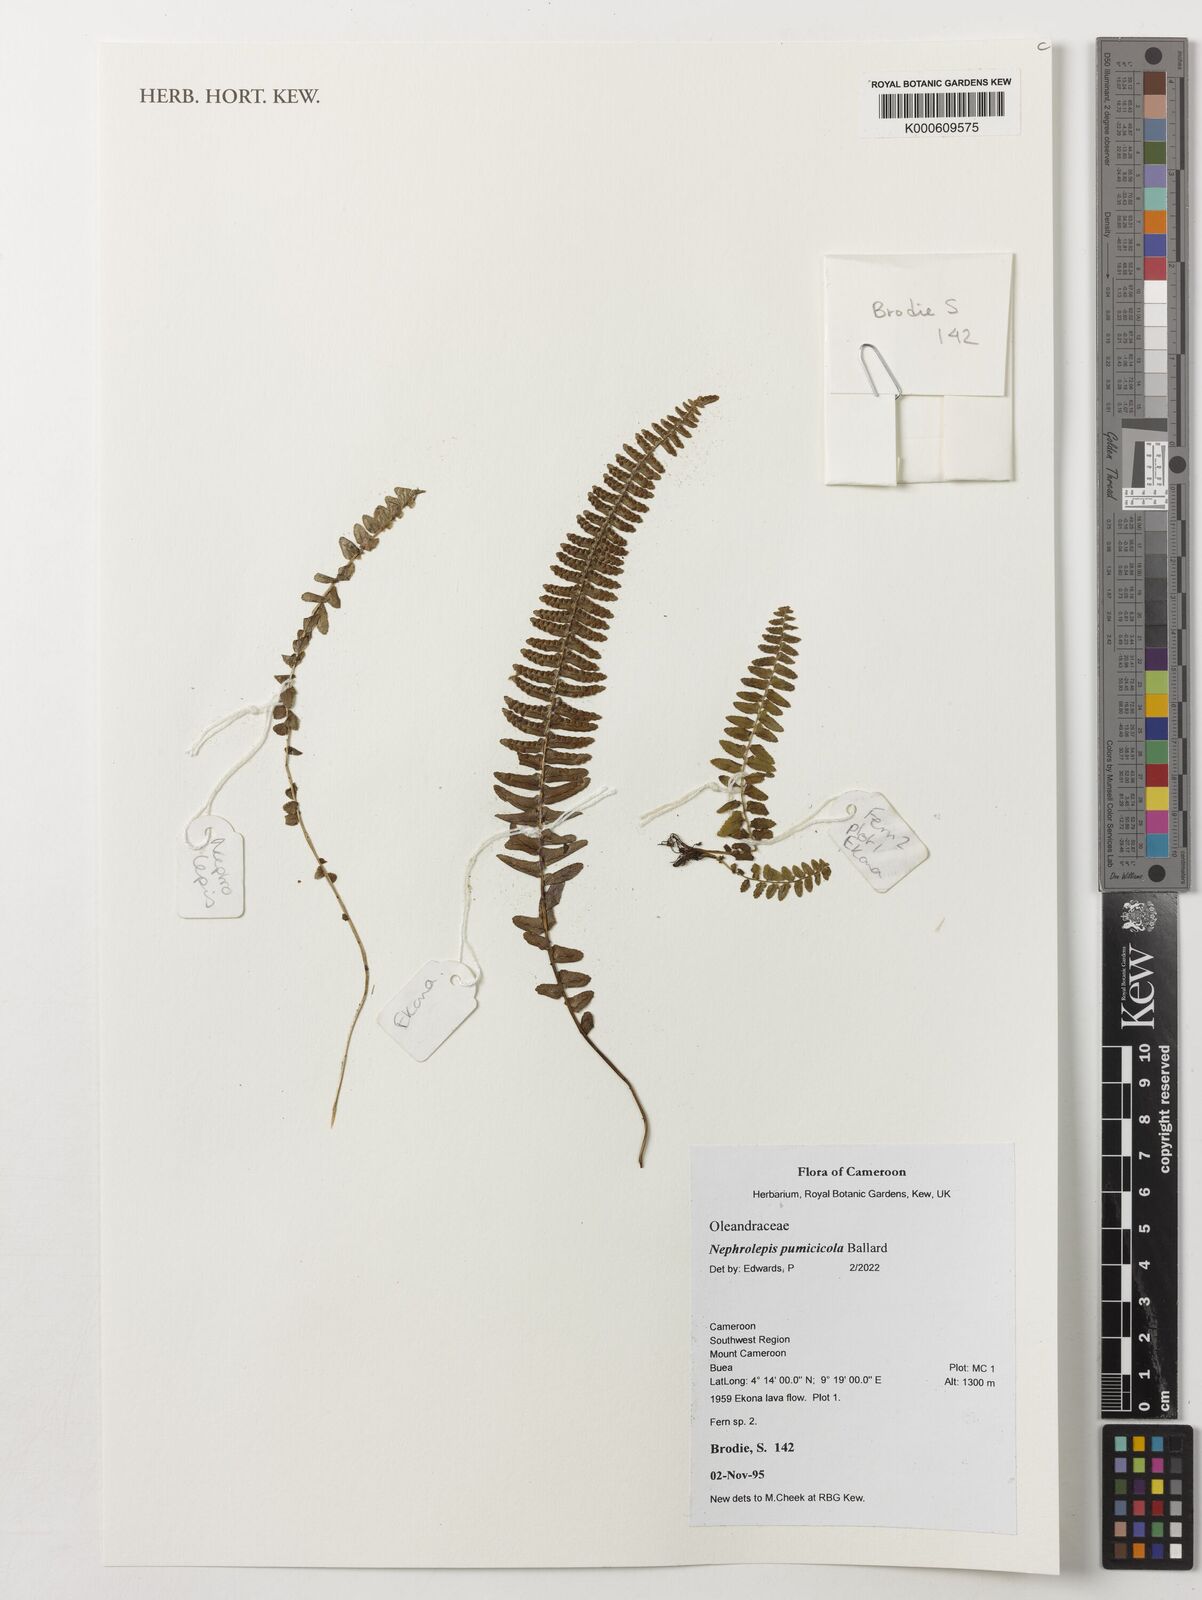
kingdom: Plantae
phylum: Tracheophyta
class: Polypodiopsida
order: Polypodiales
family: Nephrolepidaceae
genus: Nephrolepis
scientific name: Nephrolepis cordifolia
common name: Narrow swordfern
